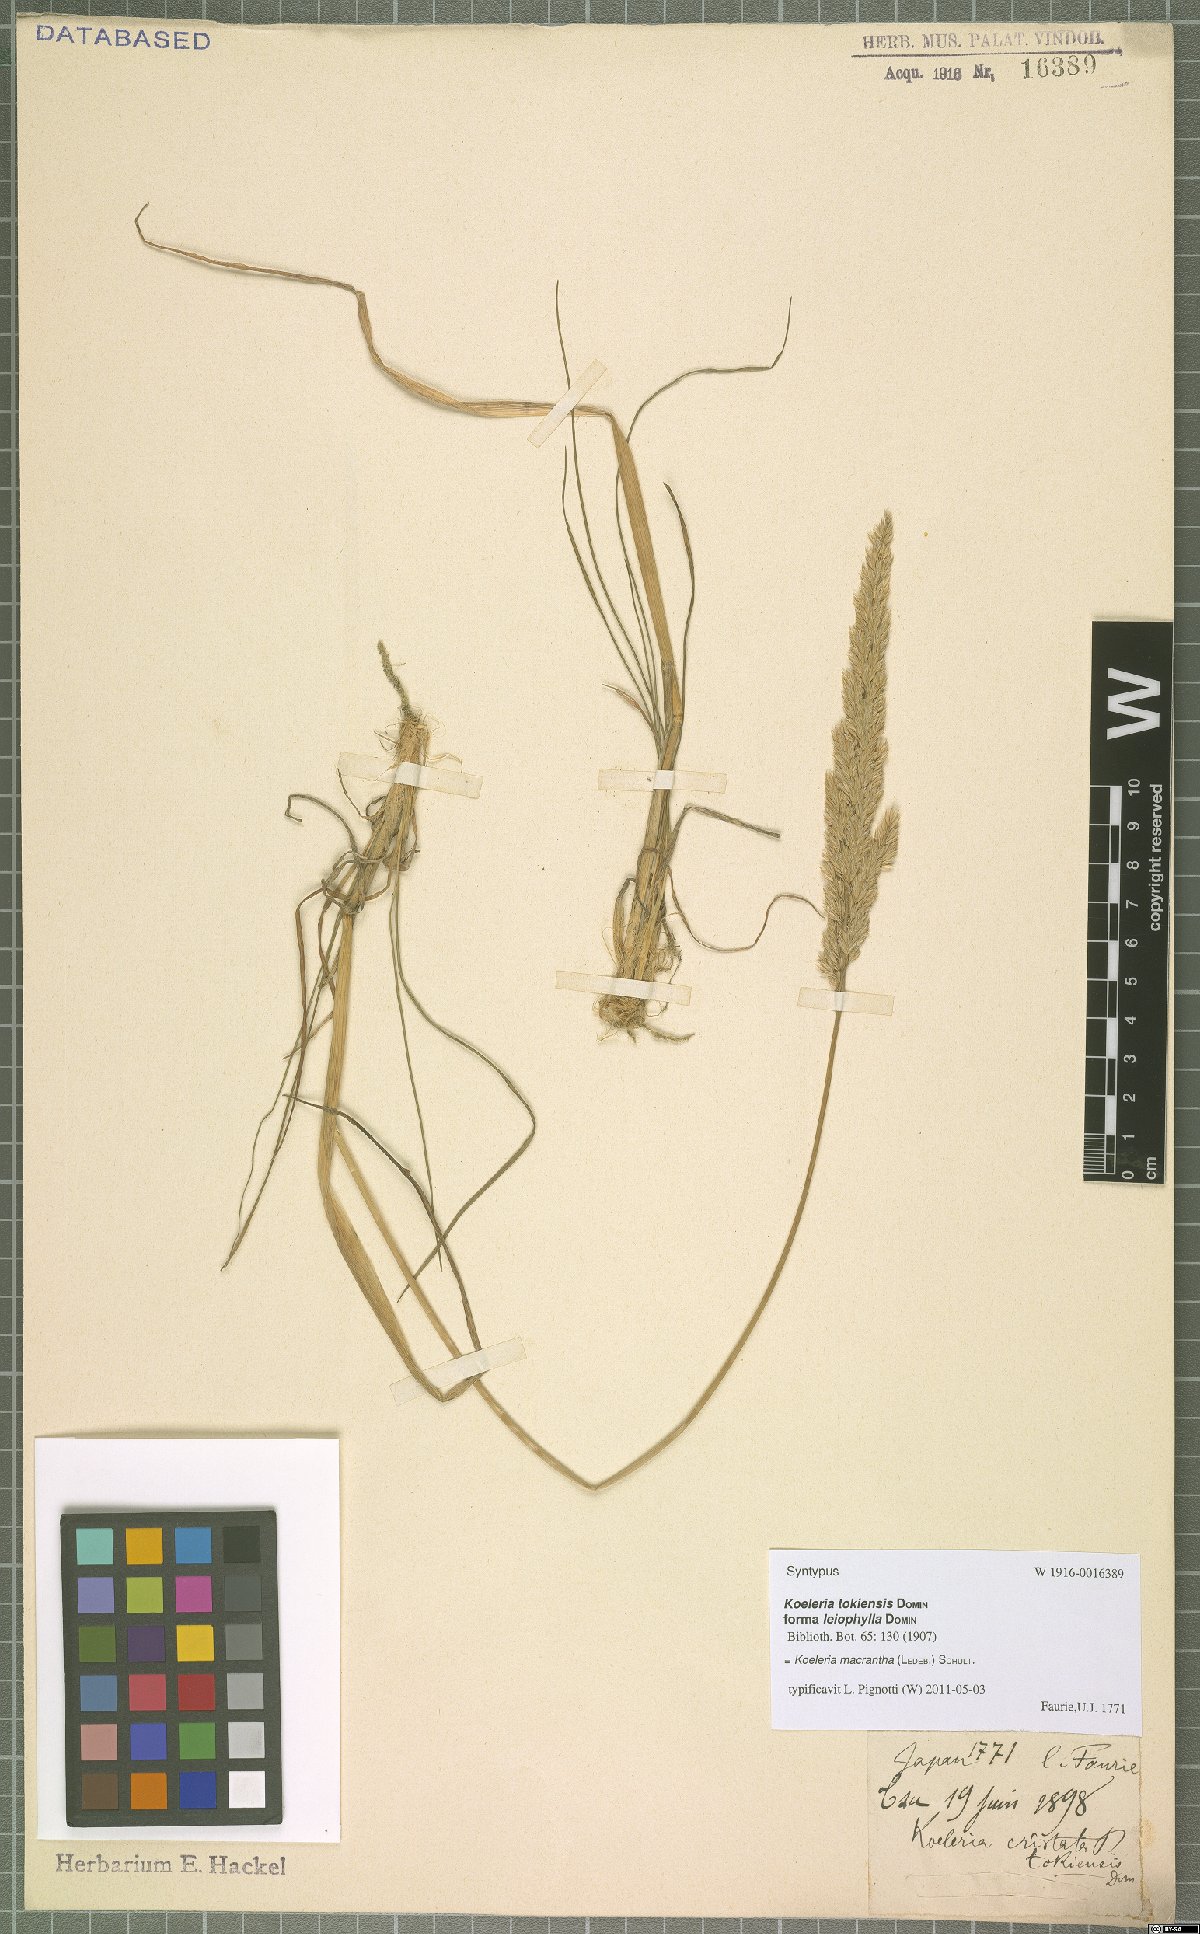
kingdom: Plantae
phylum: Tracheophyta
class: Liliopsida
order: Poales
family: Poaceae
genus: Koeleria
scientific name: Koeleria macrantha
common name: Crested hair-grass
